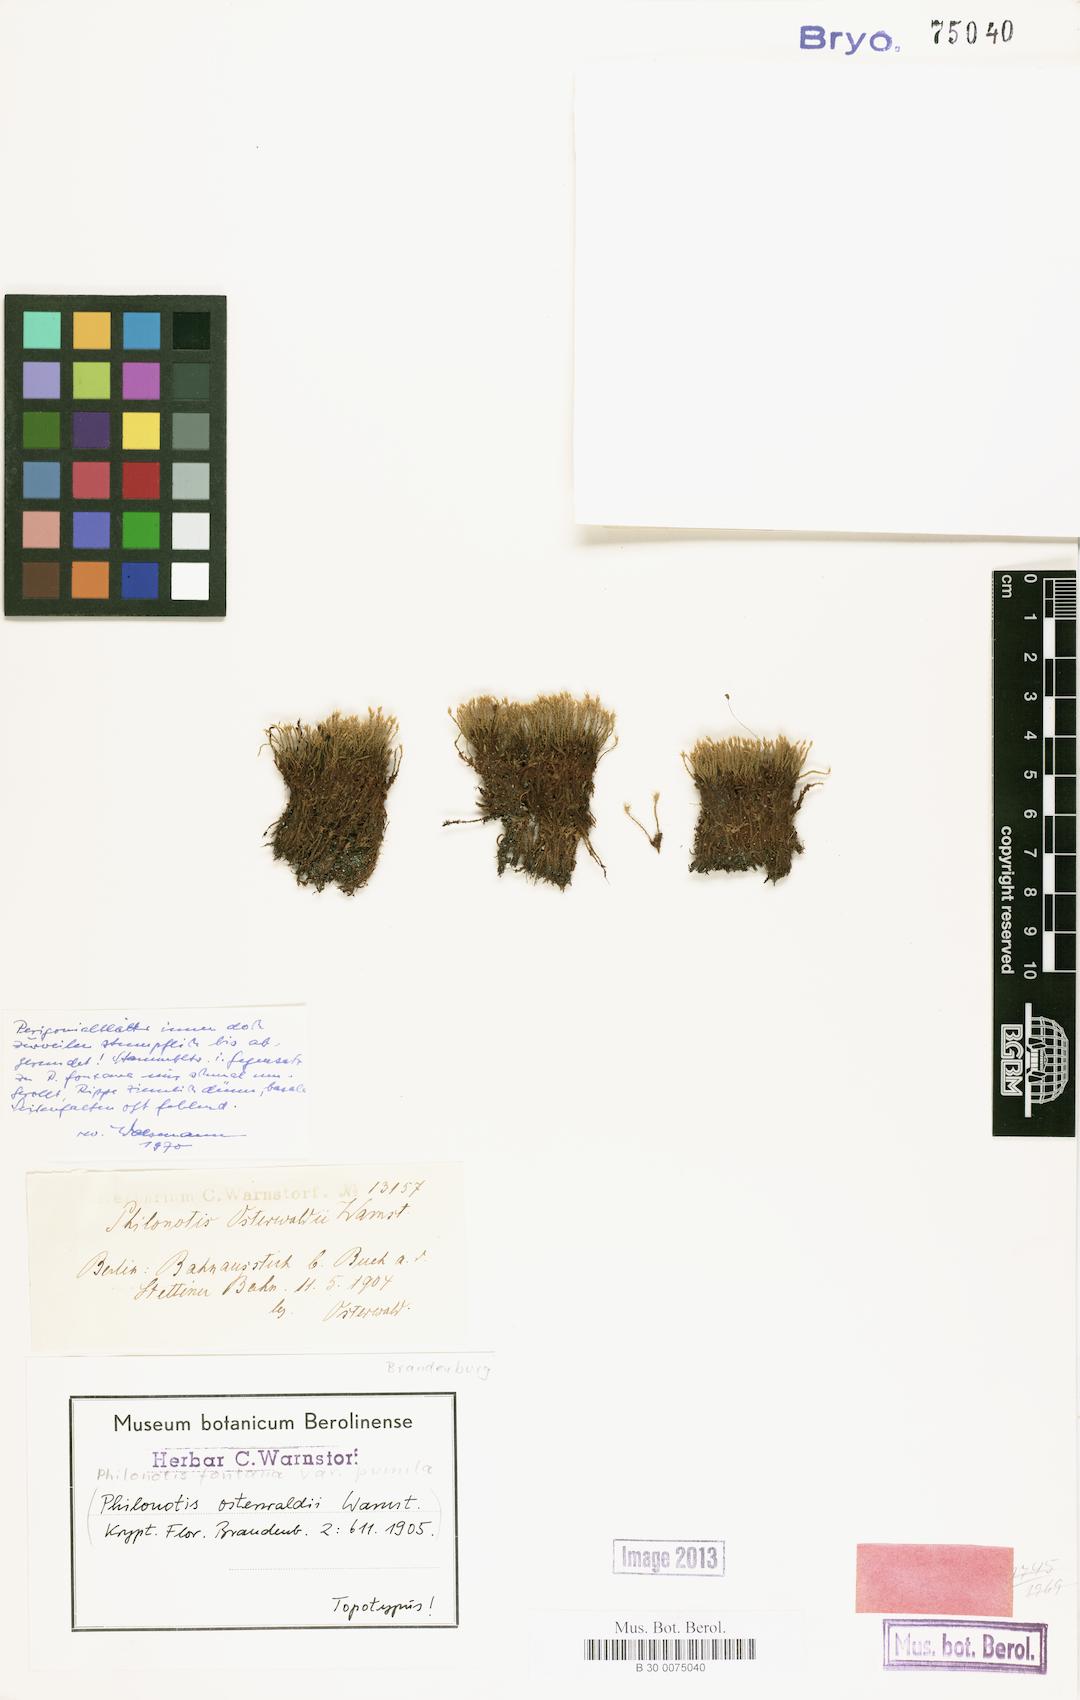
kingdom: Plantae
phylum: Bryophyta
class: Bryopsida
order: Bartramiales
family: Bartramiaceae
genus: Philonotis
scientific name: Philonotis tomentella
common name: Woolly apple moss
